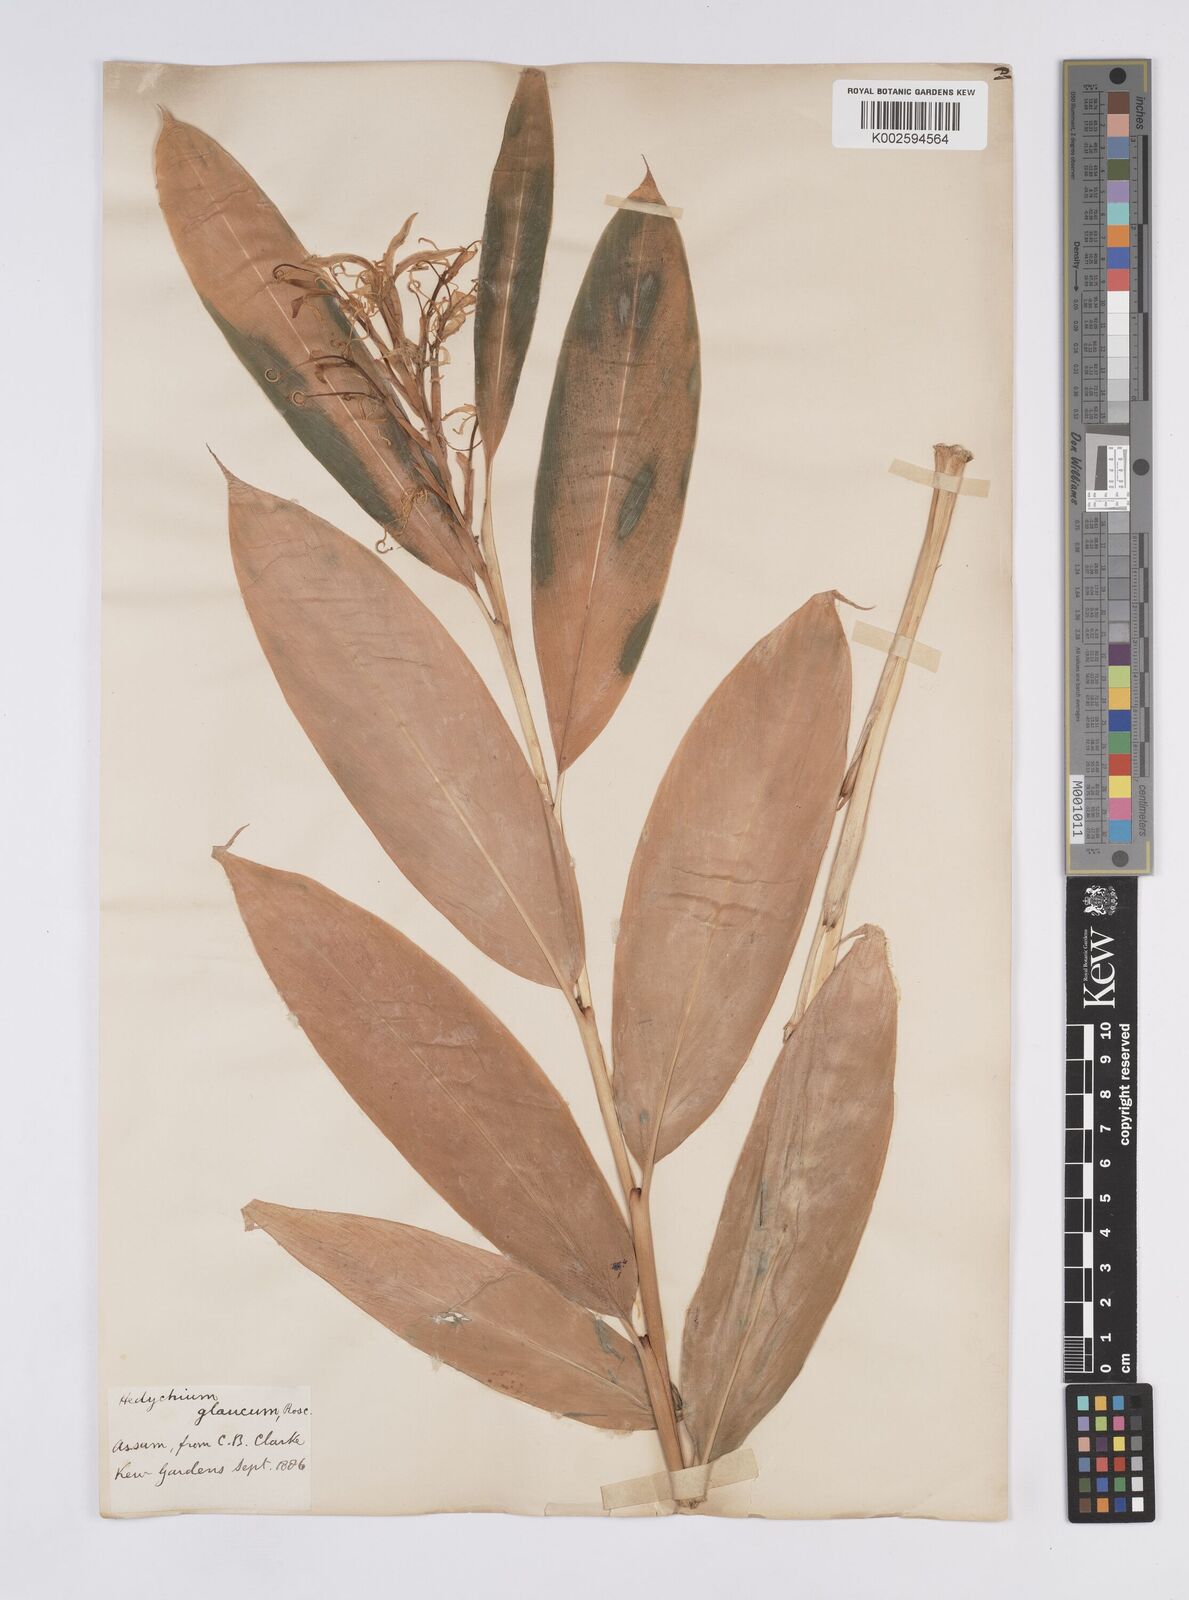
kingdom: Plantae
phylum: Tracheophyta
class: Liliopsida
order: Zingiberales
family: Zingiberaceae
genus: Hedychium
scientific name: Hedychium glaucum
